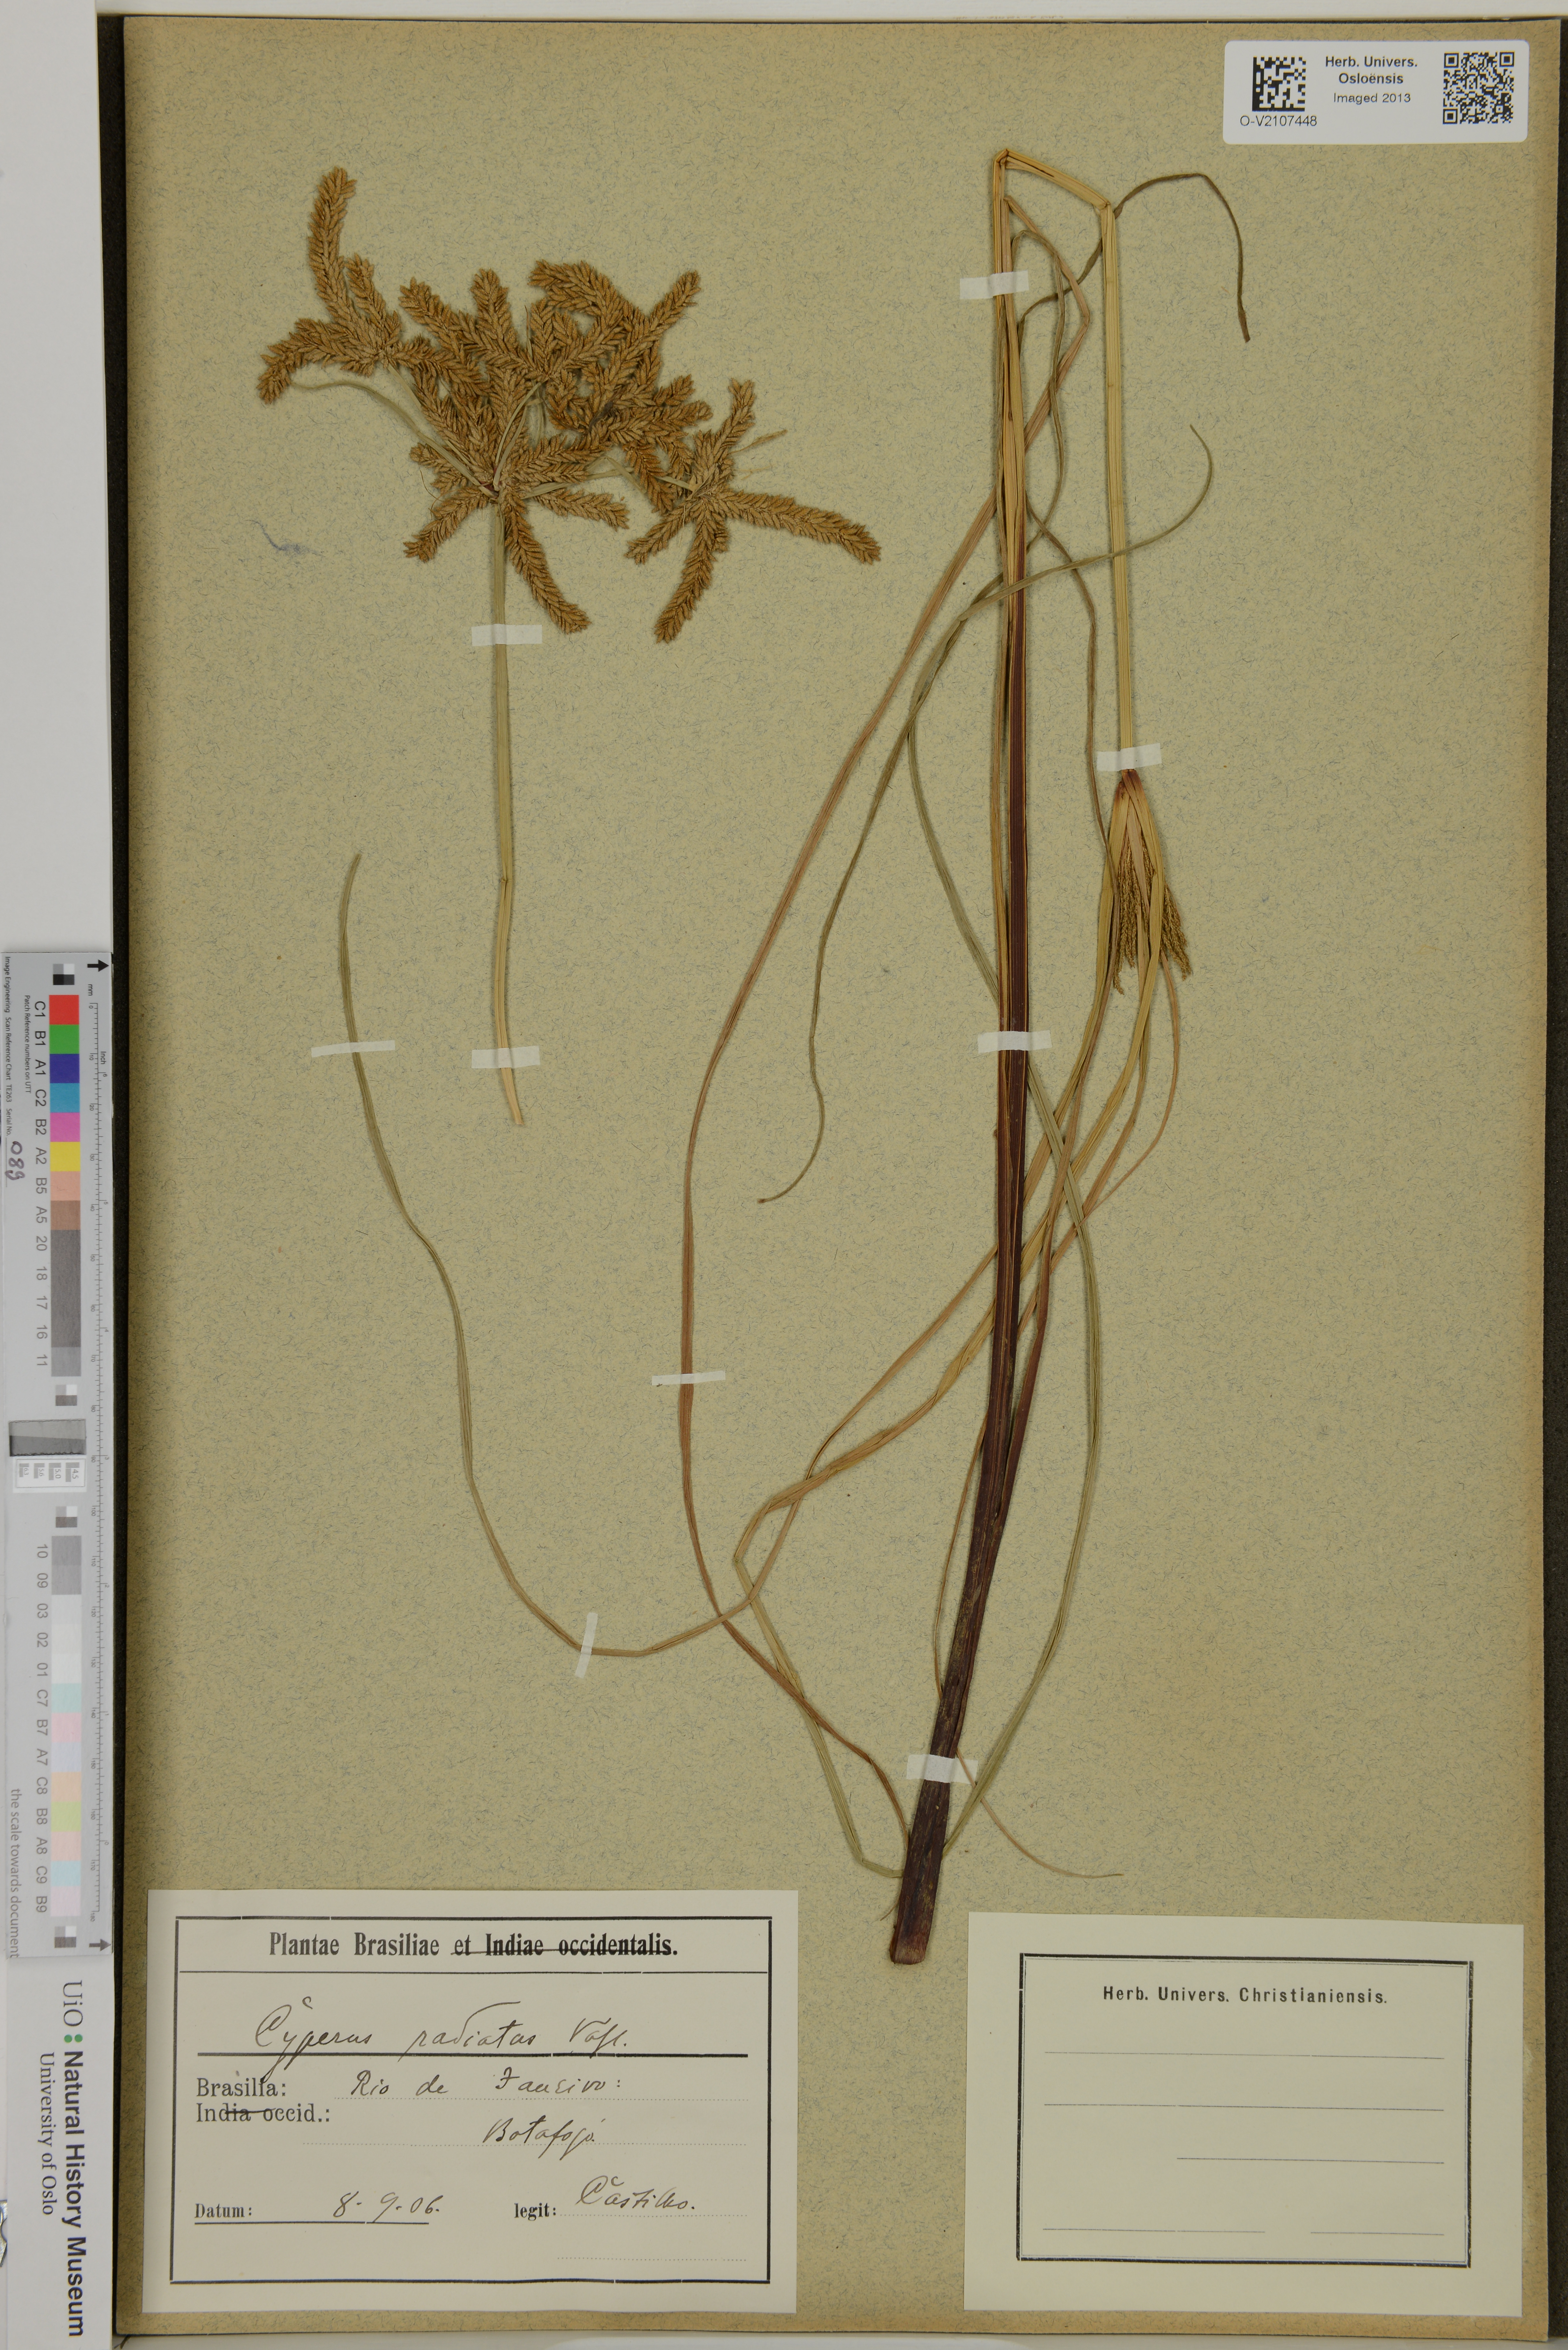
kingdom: Plantae
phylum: Tracheophyta
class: Liliopsida
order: Poales
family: Cyperaceae
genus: Cyperus
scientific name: Cyperus imbricatus
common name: Shingle flatsedge
